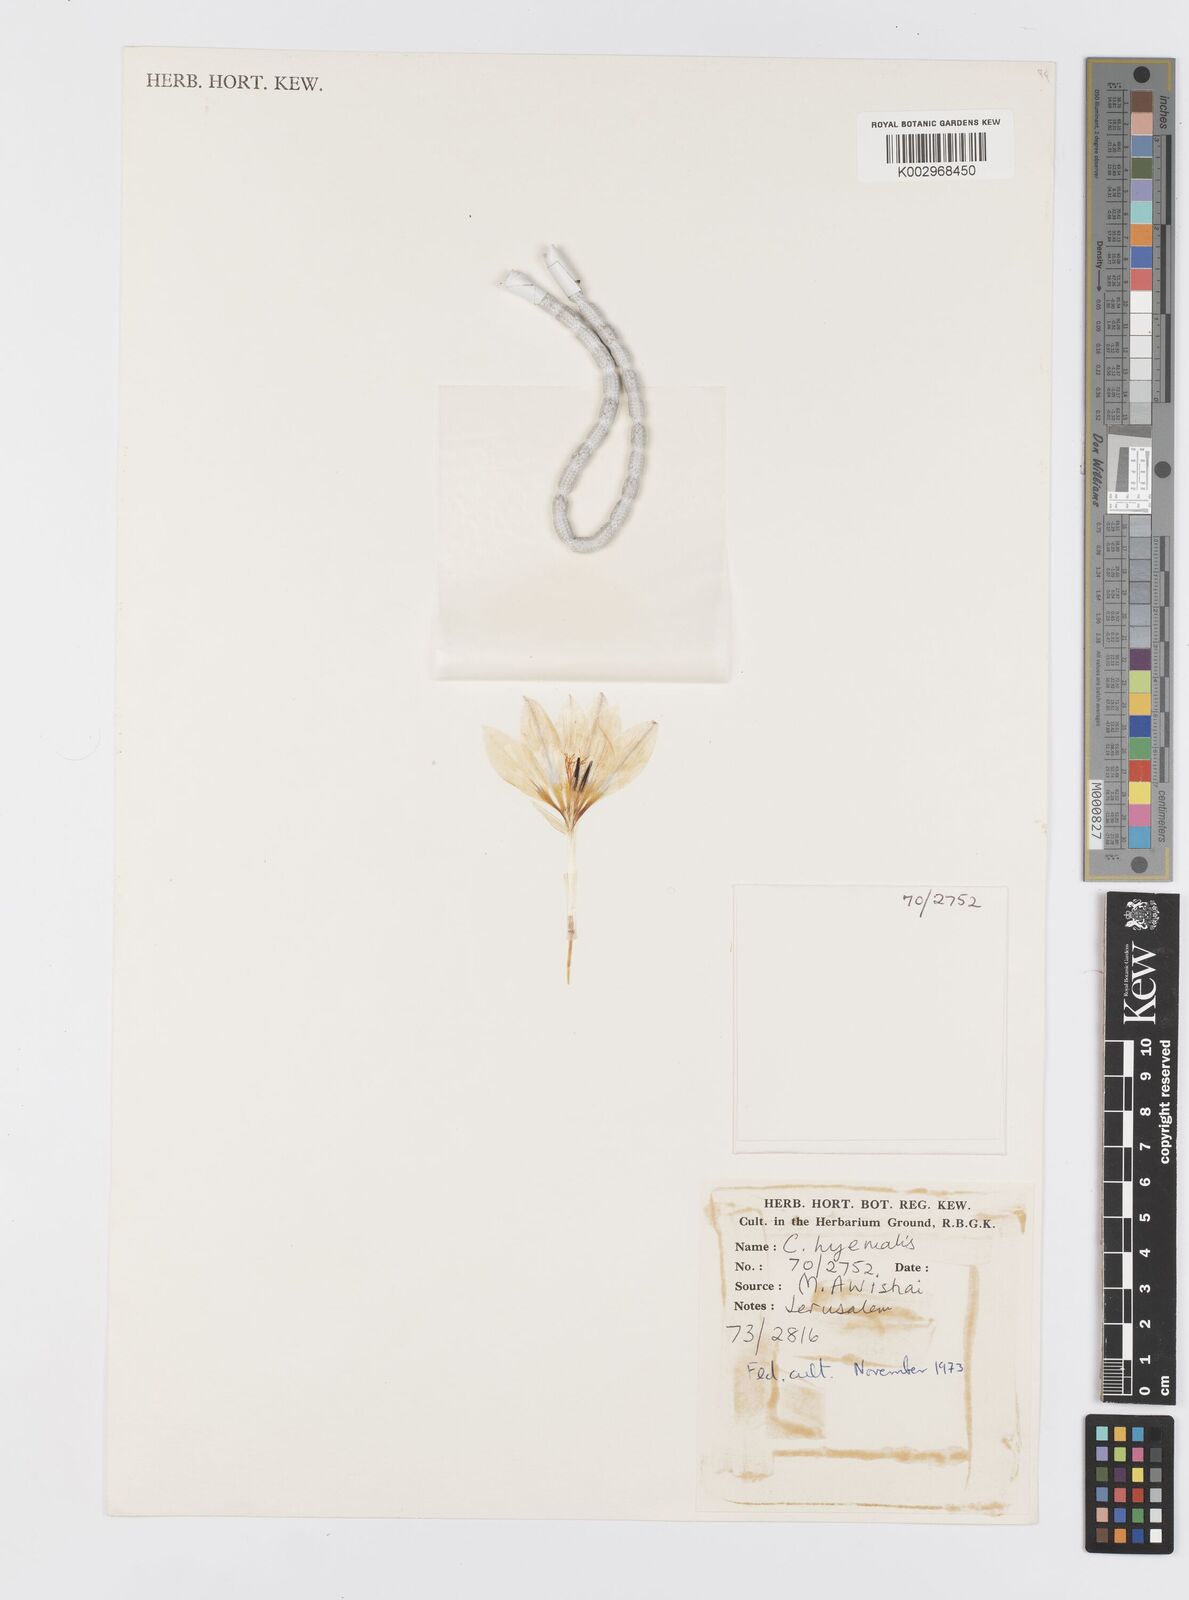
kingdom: Plantae
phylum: Tracheophyta
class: Liliopsida
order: Asparagales
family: Iridaceae
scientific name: Iridaceae
